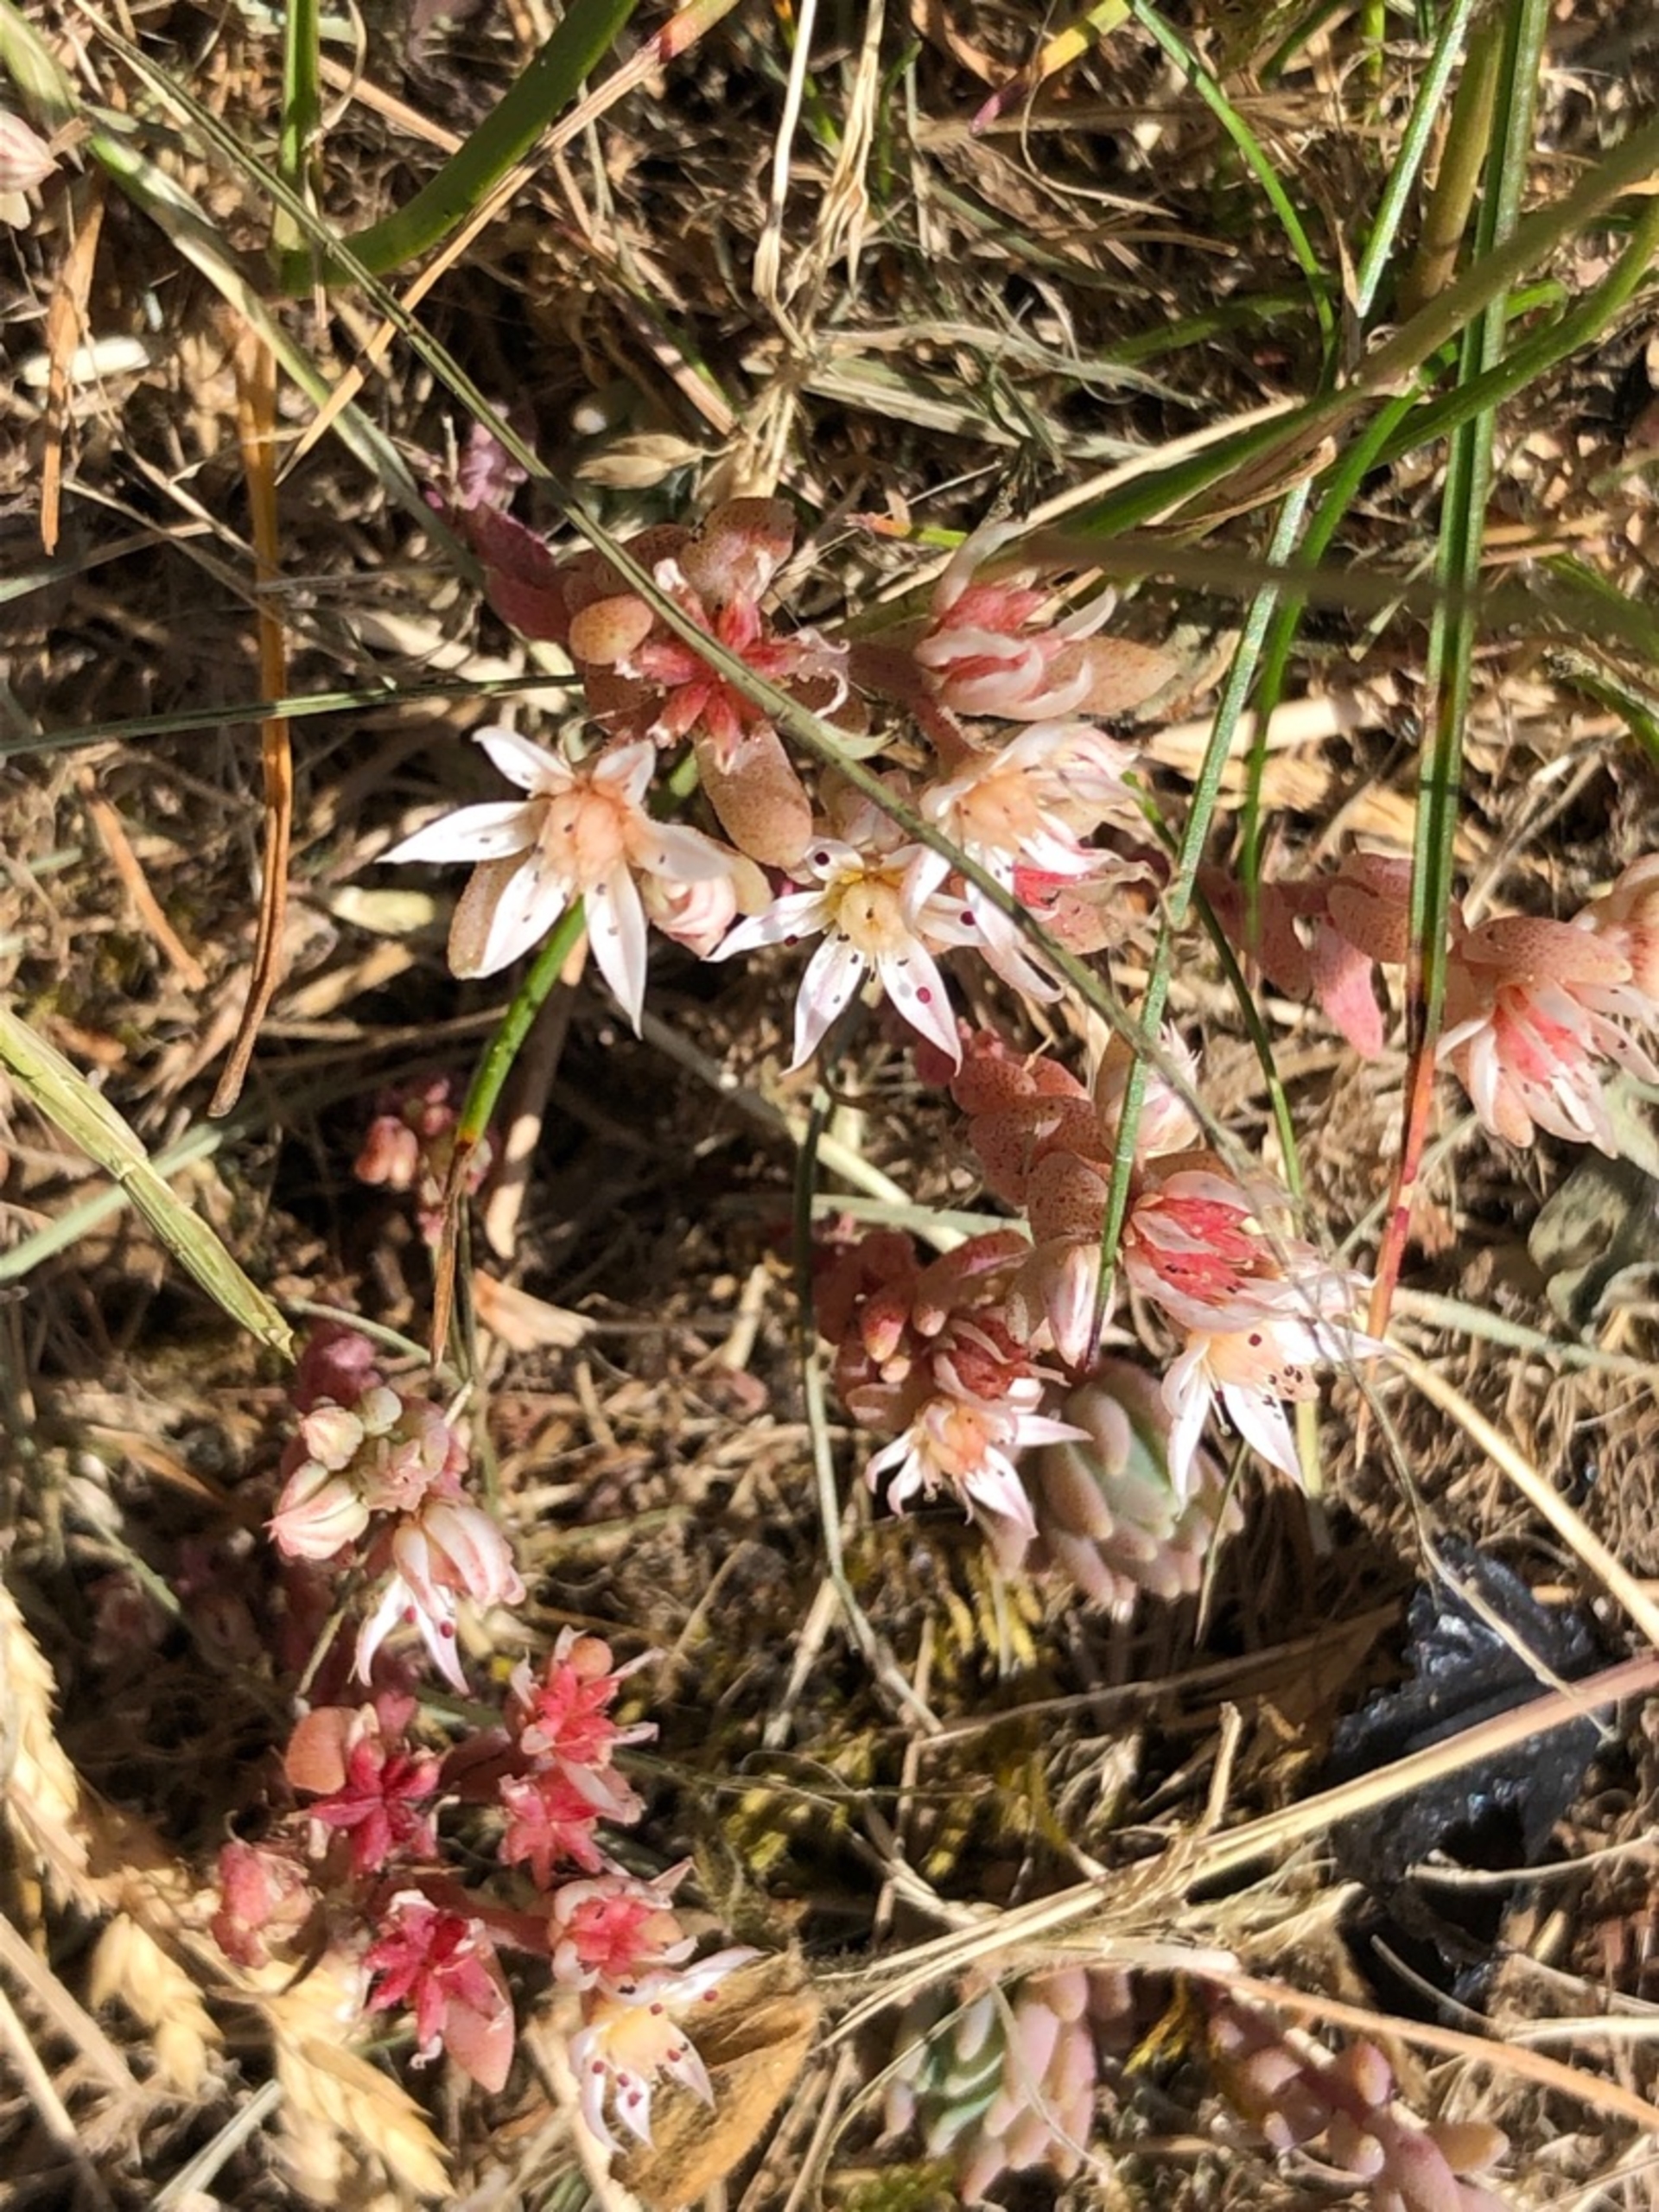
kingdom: Plantae
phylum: Tracheophyta
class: Magnoliopsida
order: Saxifragales
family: Crassulaceae
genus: Sedum
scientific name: Sedum hispanicum
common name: Bleg stenurt
